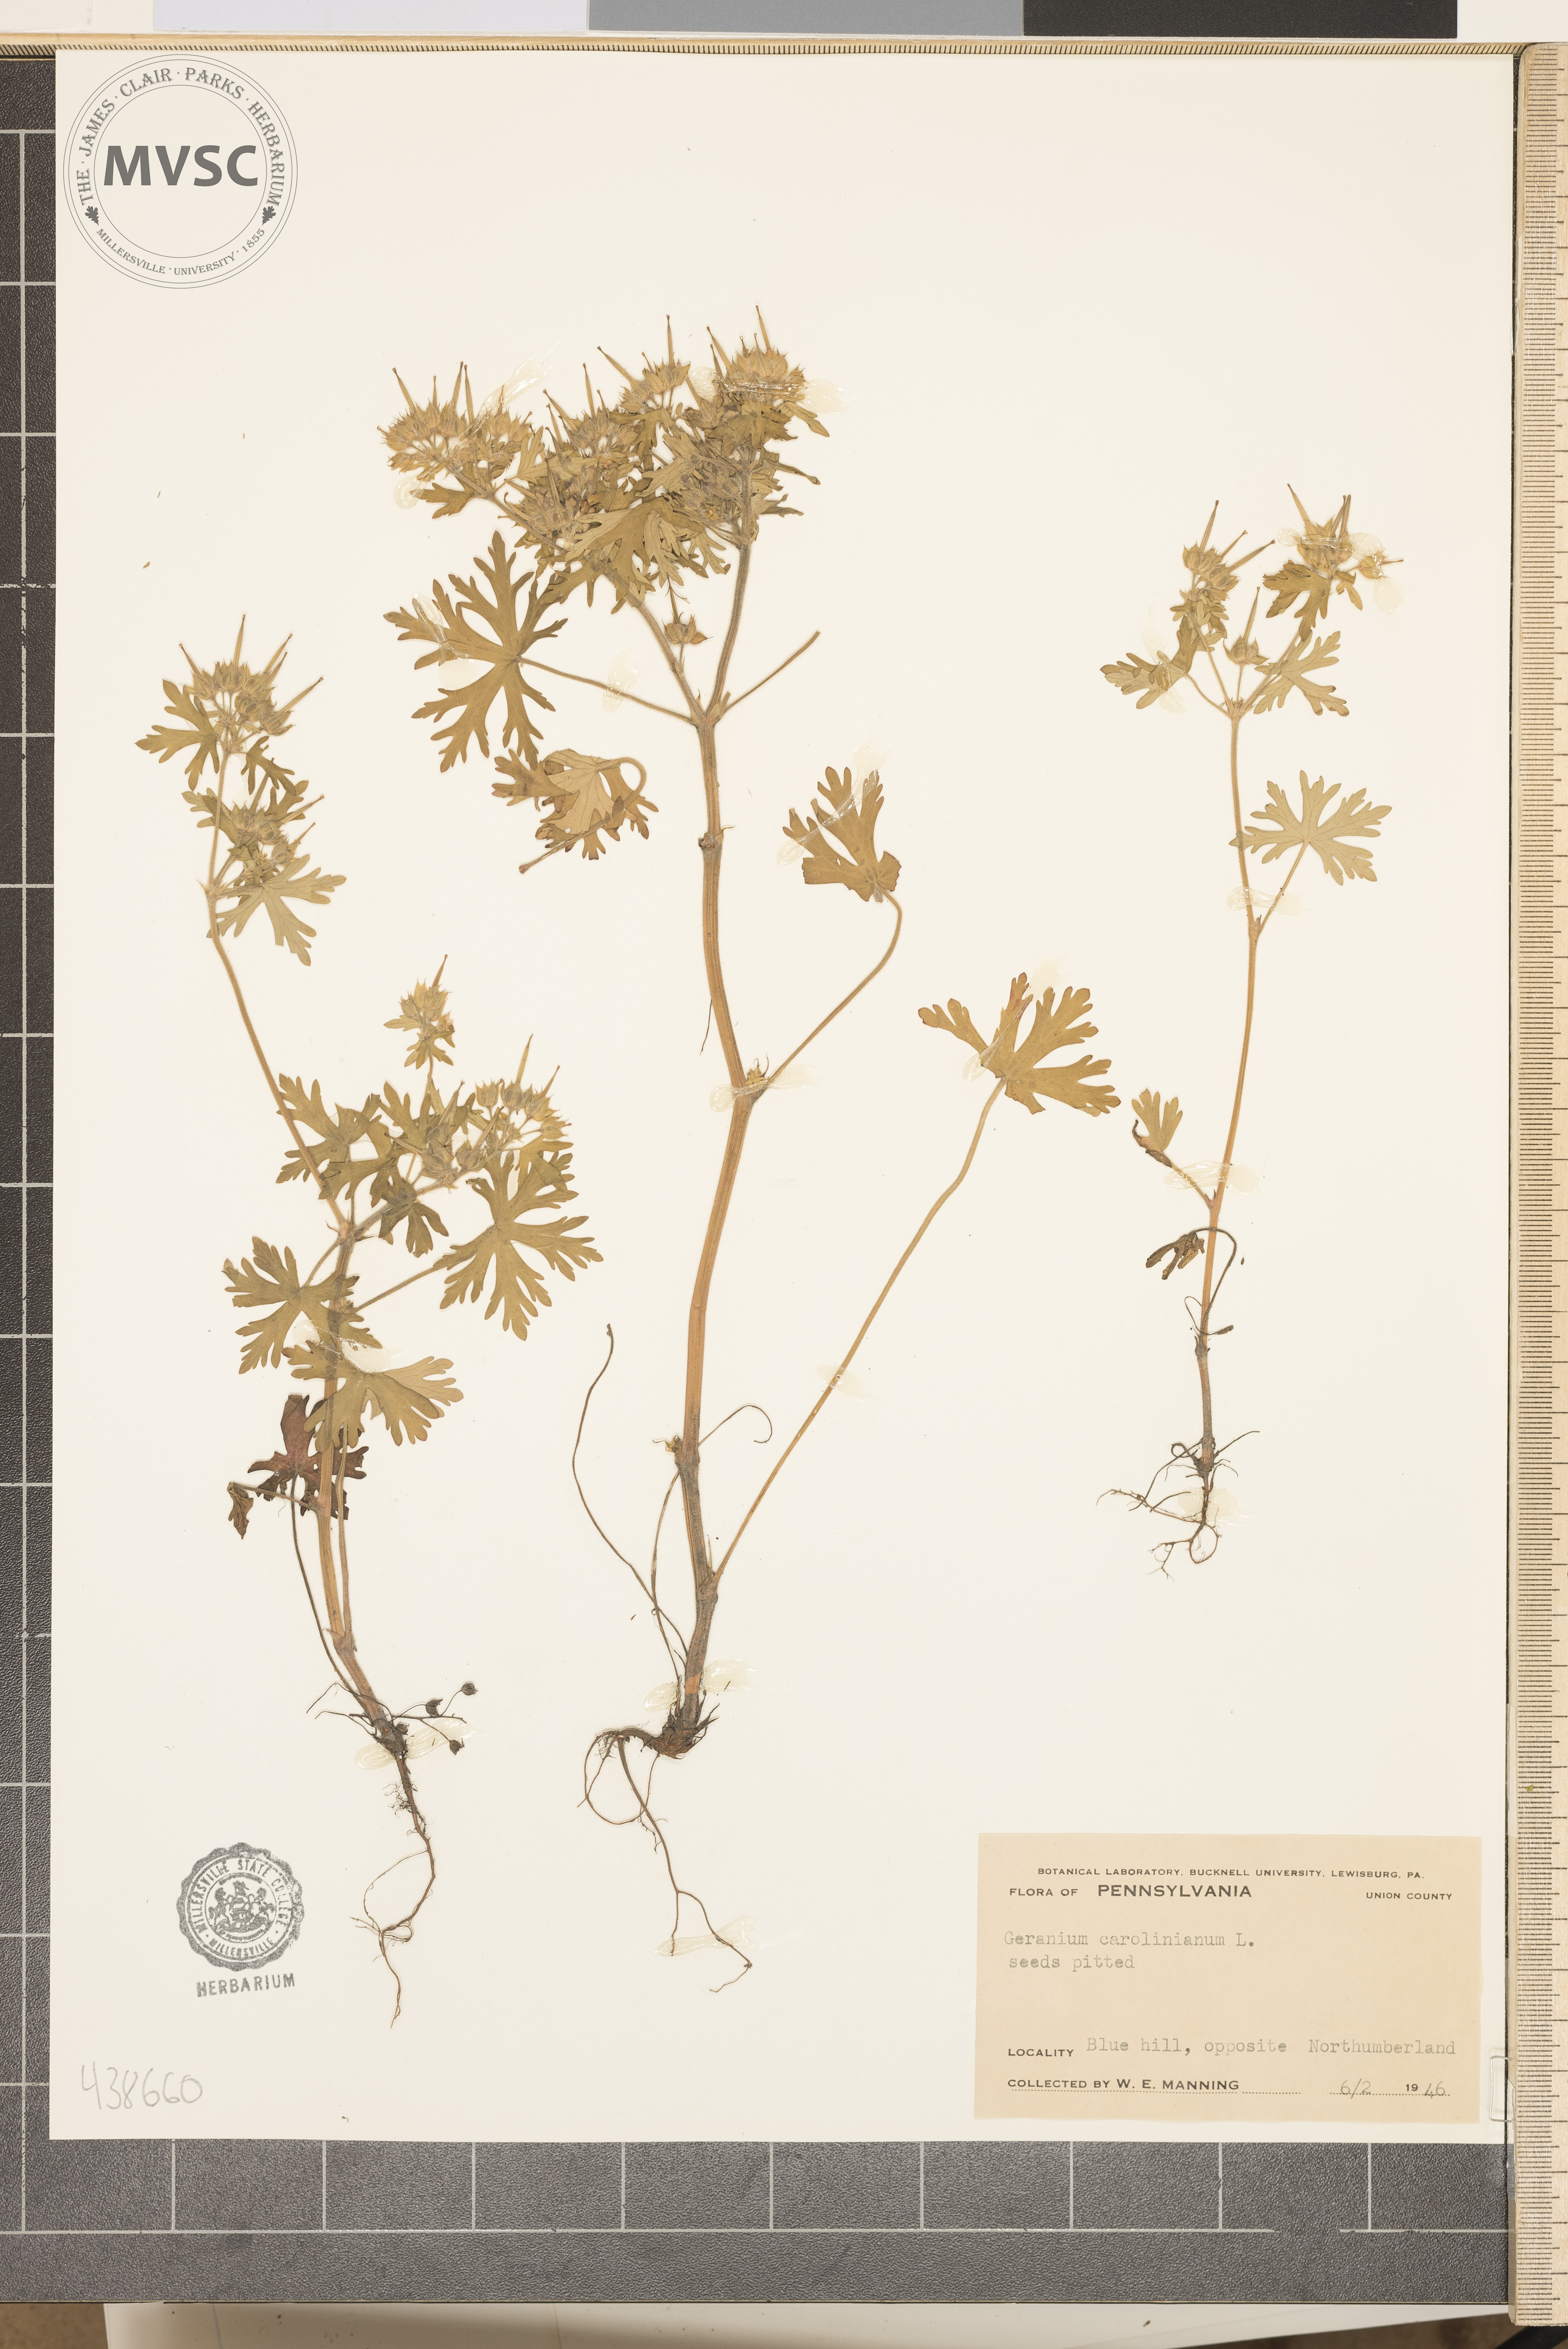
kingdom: Plantae
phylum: Tracheophyta
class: Magnoliopsida
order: Geraniales
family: Geraniaceae
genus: Geranium
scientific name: Geranium carolinianum
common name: Carolina crane's-bill
